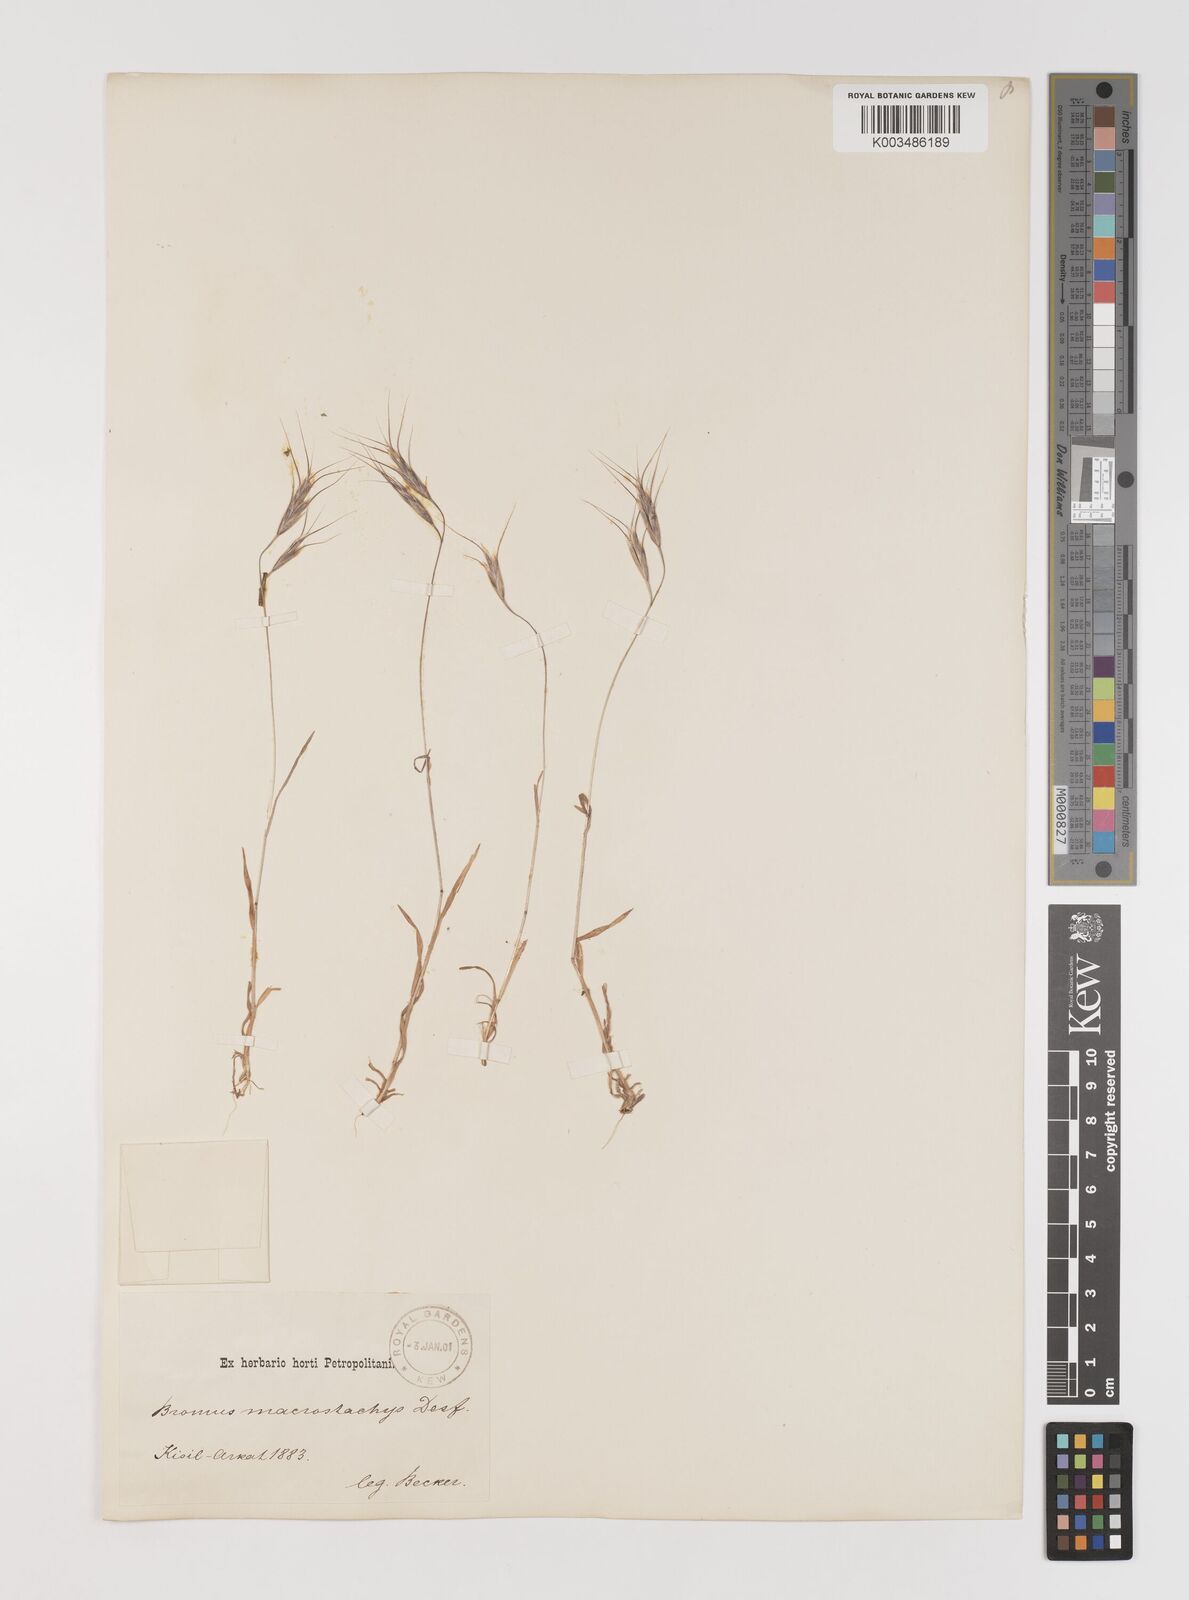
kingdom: Plantae
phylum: Tracheophyta
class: Liliopsida
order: Poales
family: Poaceae
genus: Bromus
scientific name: Bromus lanceolatus
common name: Mediterranean brome
